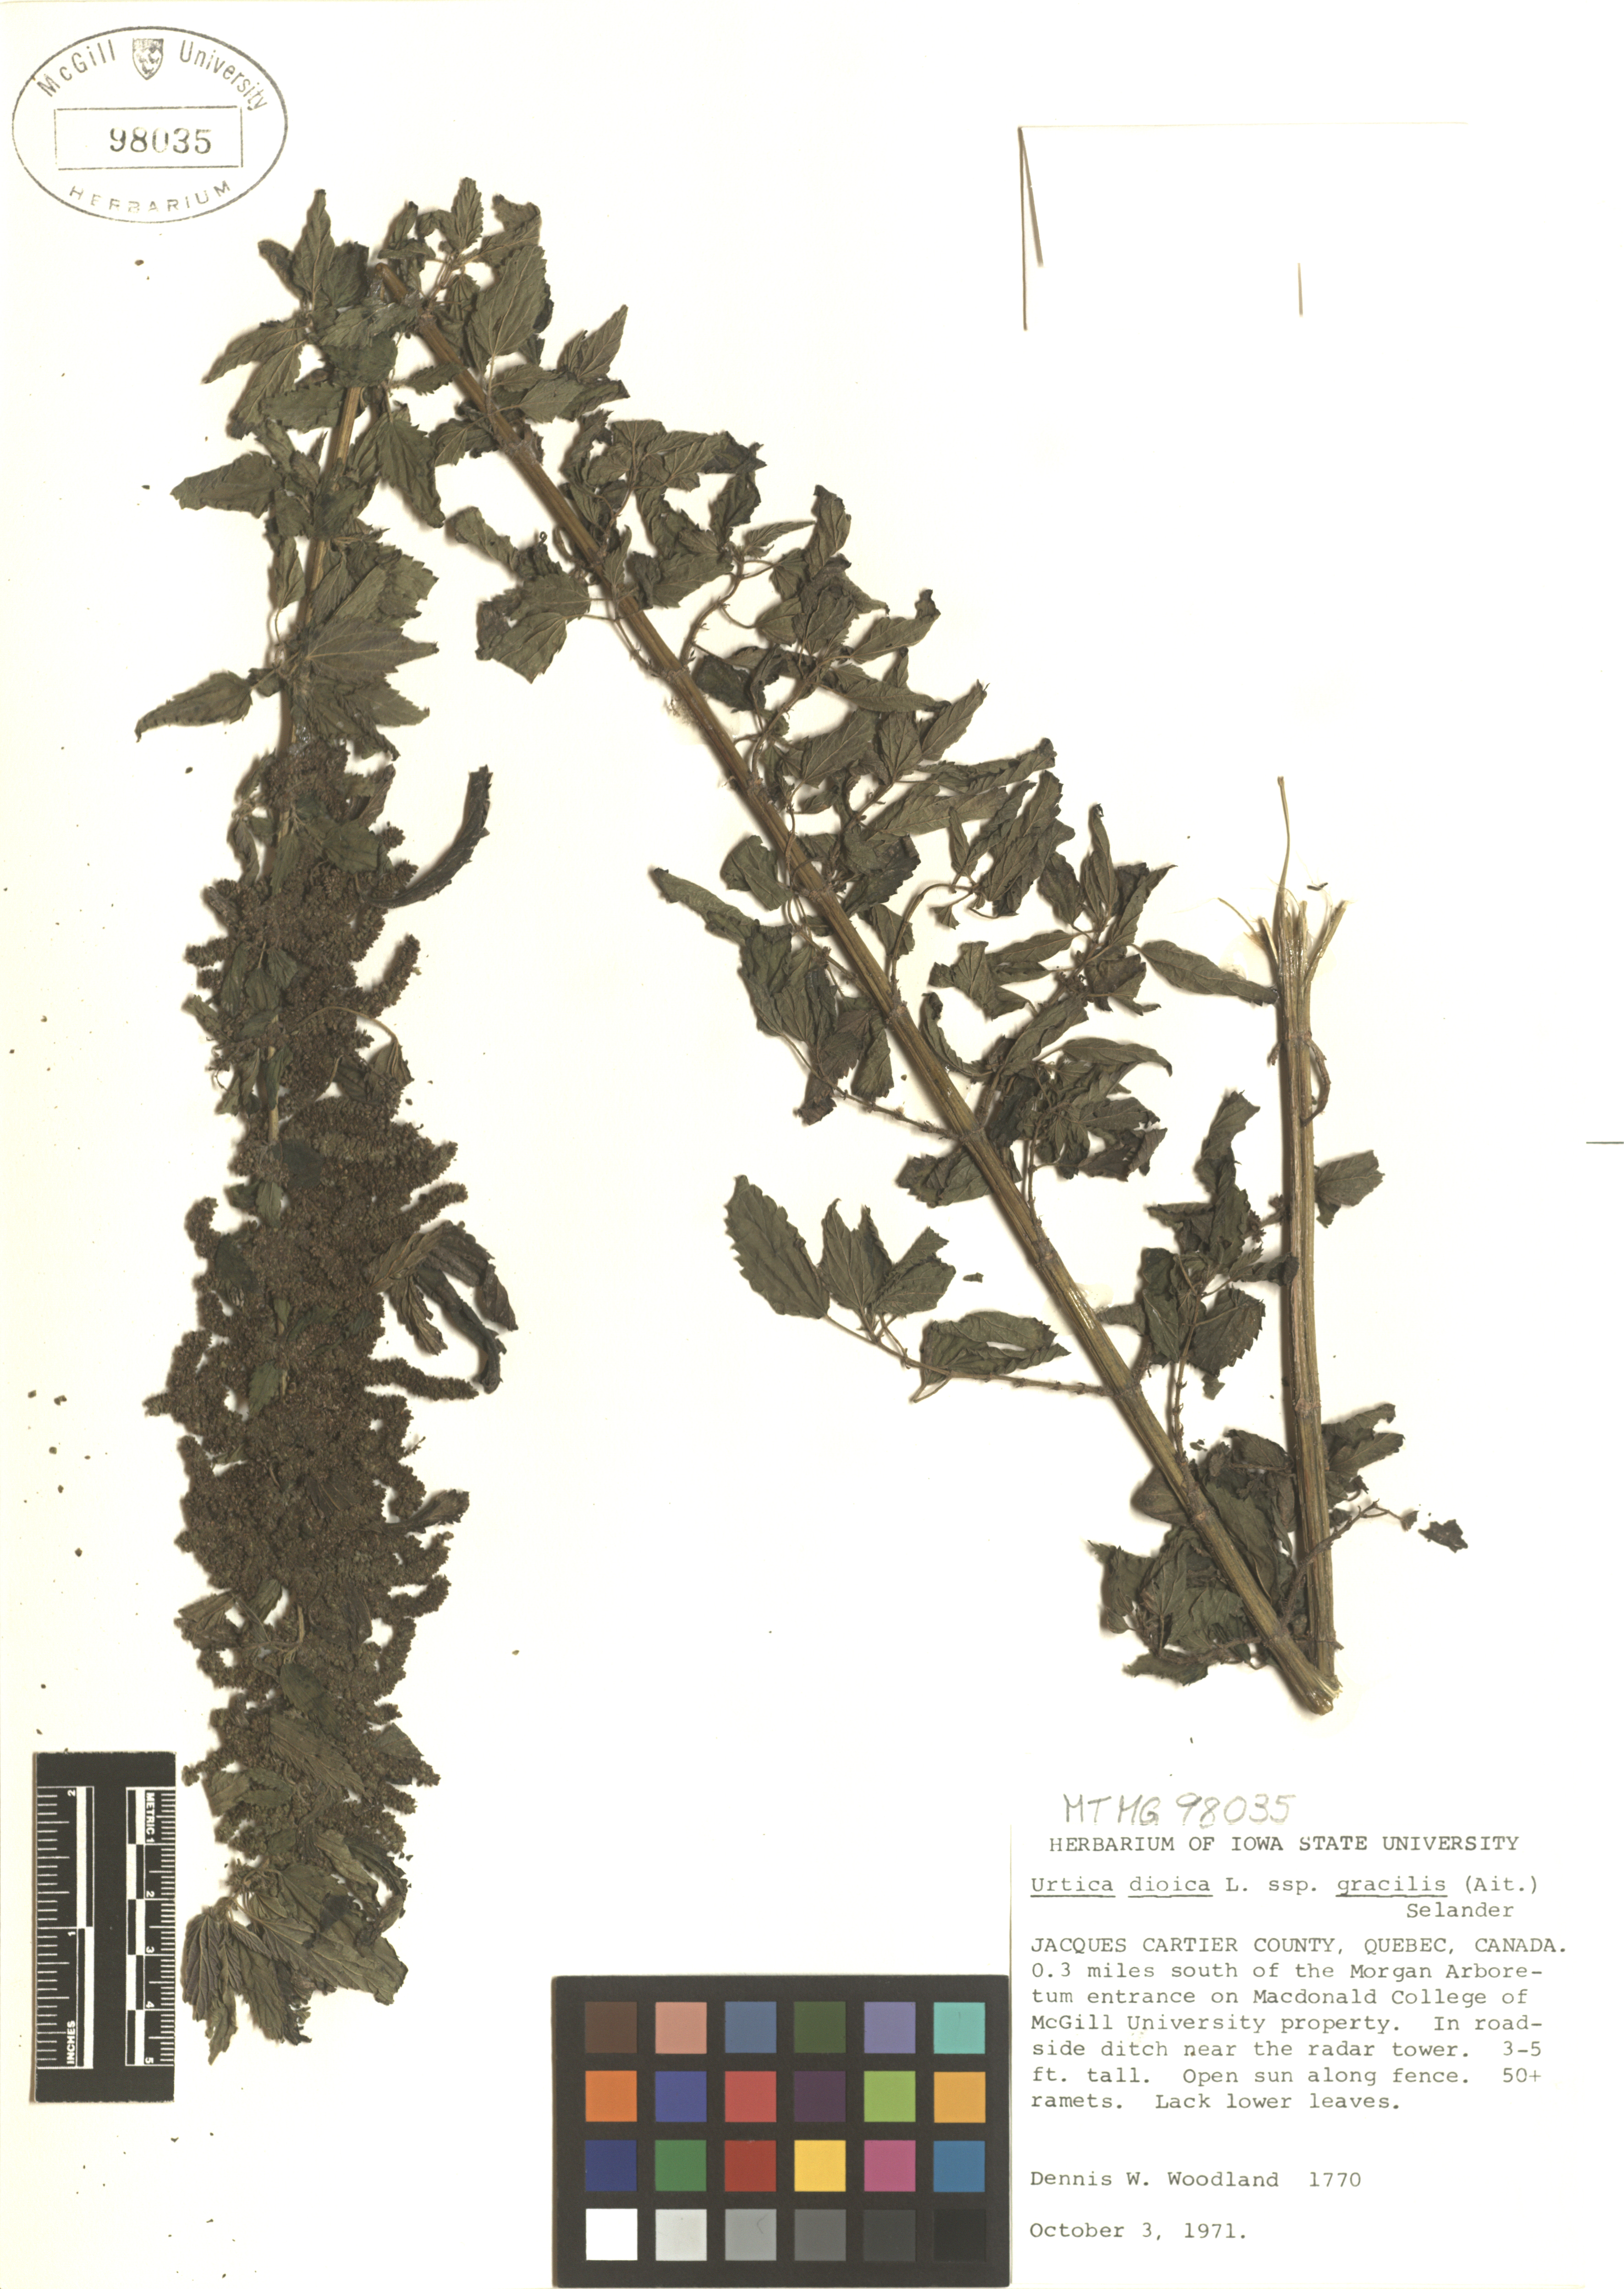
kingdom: Plantae
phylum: Tracheophyta
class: Magnoliopsida
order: Rosales
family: Urticaceae
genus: Urtica
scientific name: Urtica gracilis
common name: Slender stinging nettle
